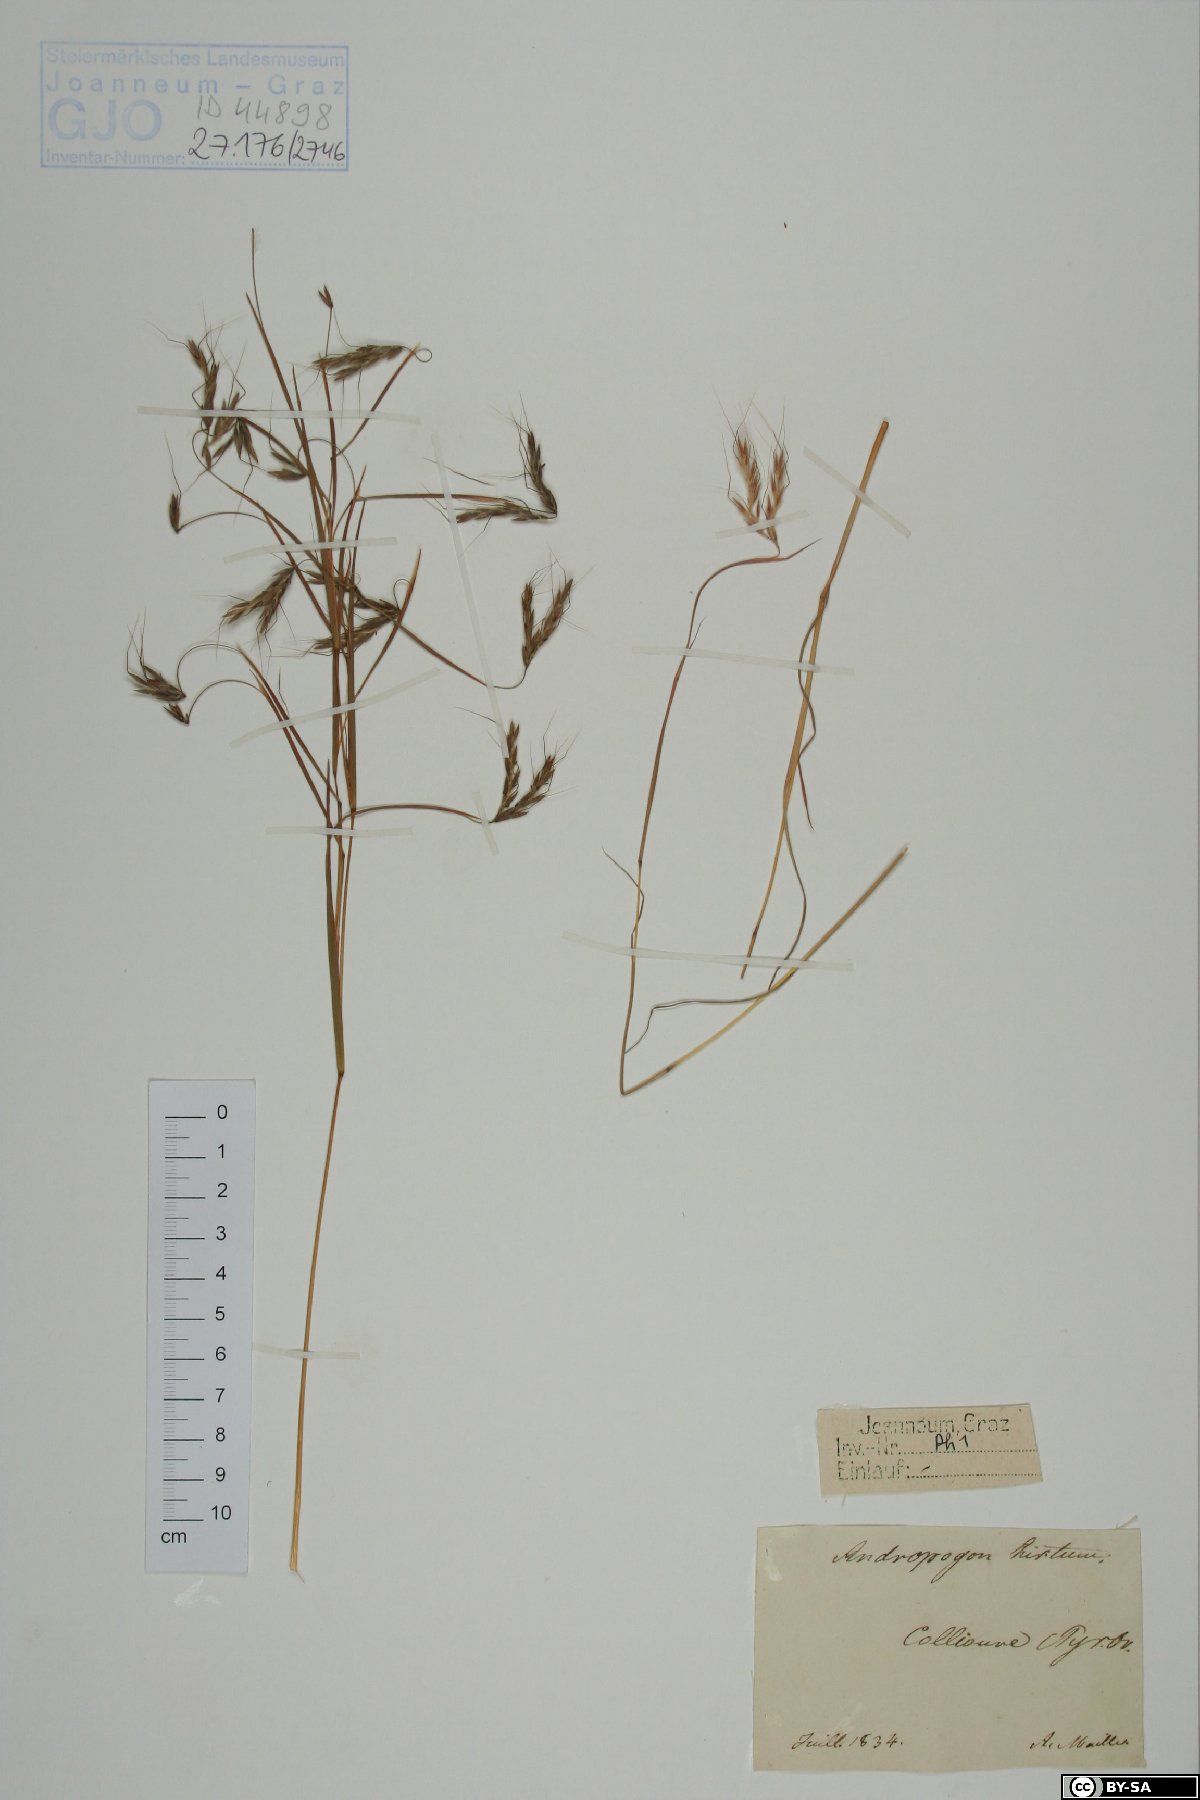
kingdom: Plantae
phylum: Tracheophyta
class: Liliopsida
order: Poales
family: Poaceae
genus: Hyparrhenia
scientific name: Hyparrhenia hirta
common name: Thatching grass
